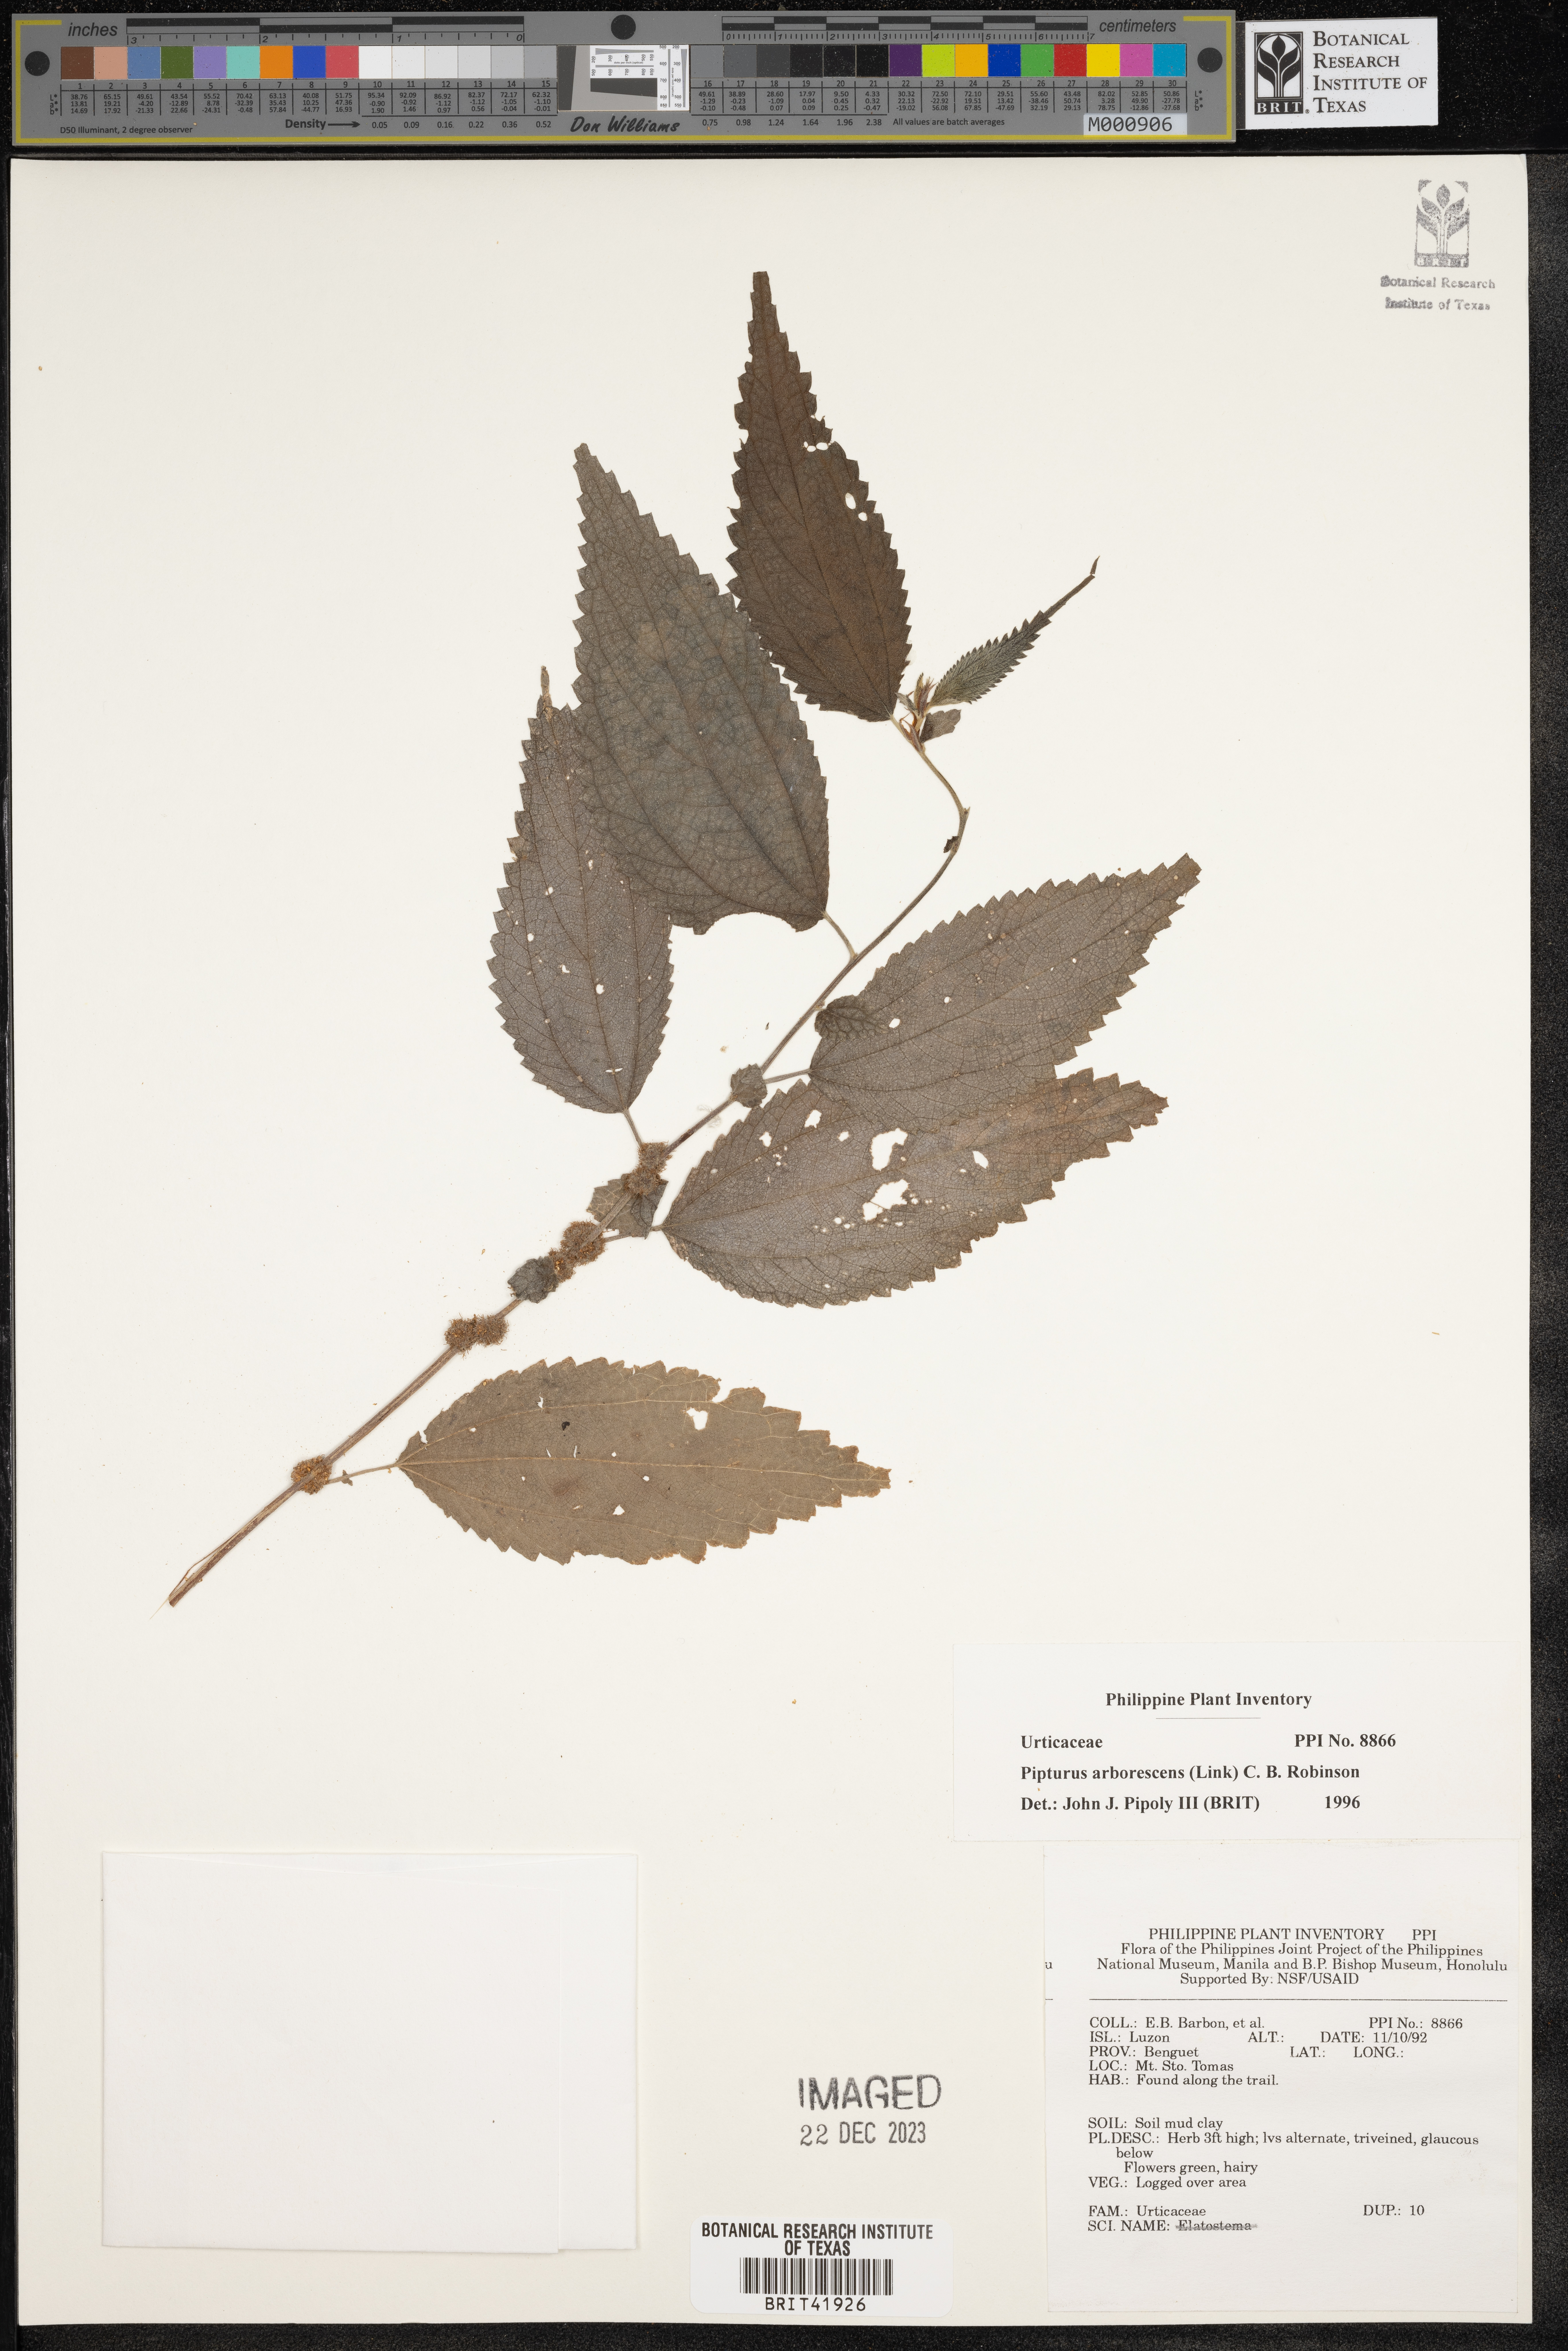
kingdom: Plantae
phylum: Tracheophyta
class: Magnoliopsida
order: Rosales
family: Urticaceae
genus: Pipturus
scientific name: Pipturus arborescens
